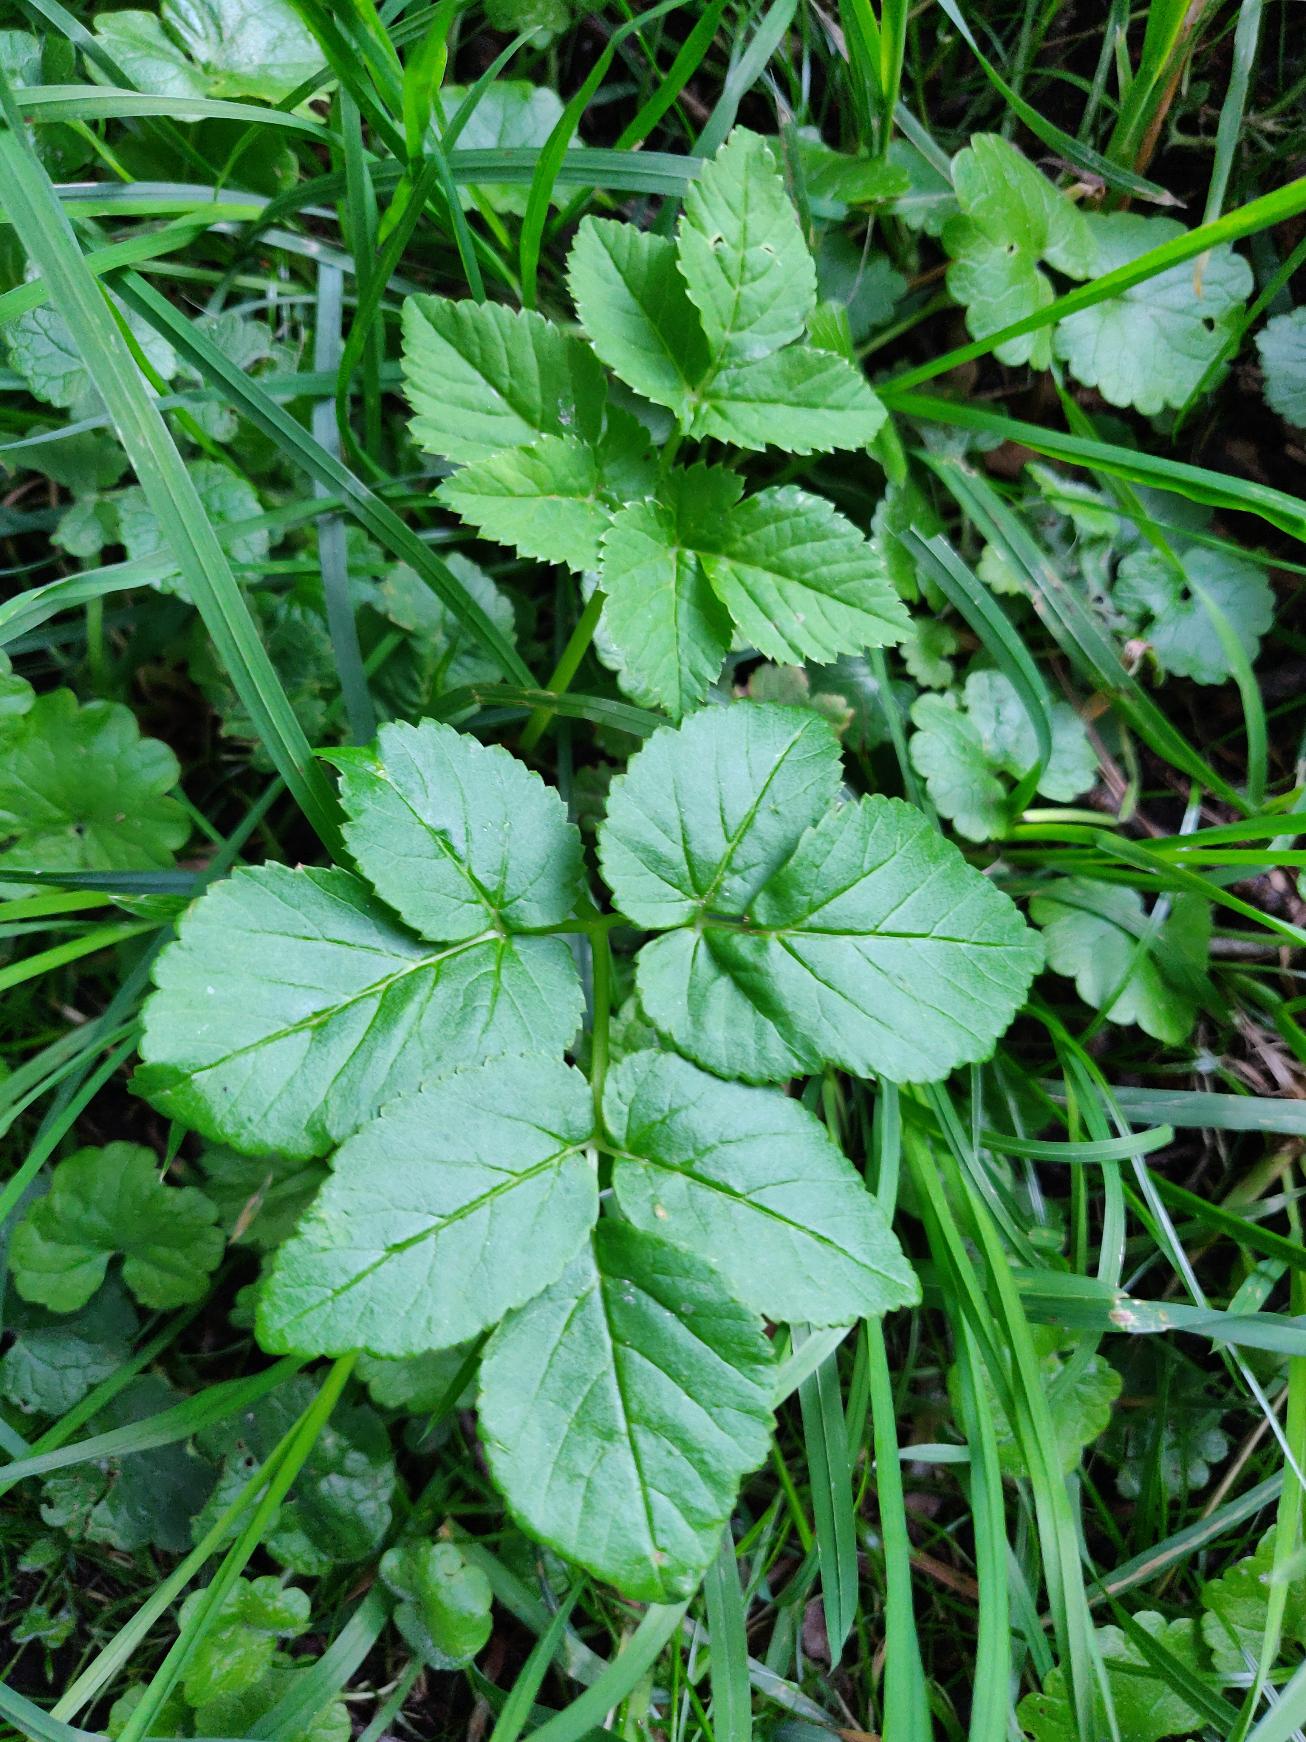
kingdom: Plantae
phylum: Tracheophyta
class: Magnoliopsida
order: Apiales
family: Apiaceae
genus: Aegopodium
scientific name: Aegopodium podagraria
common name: Skvalderkål
